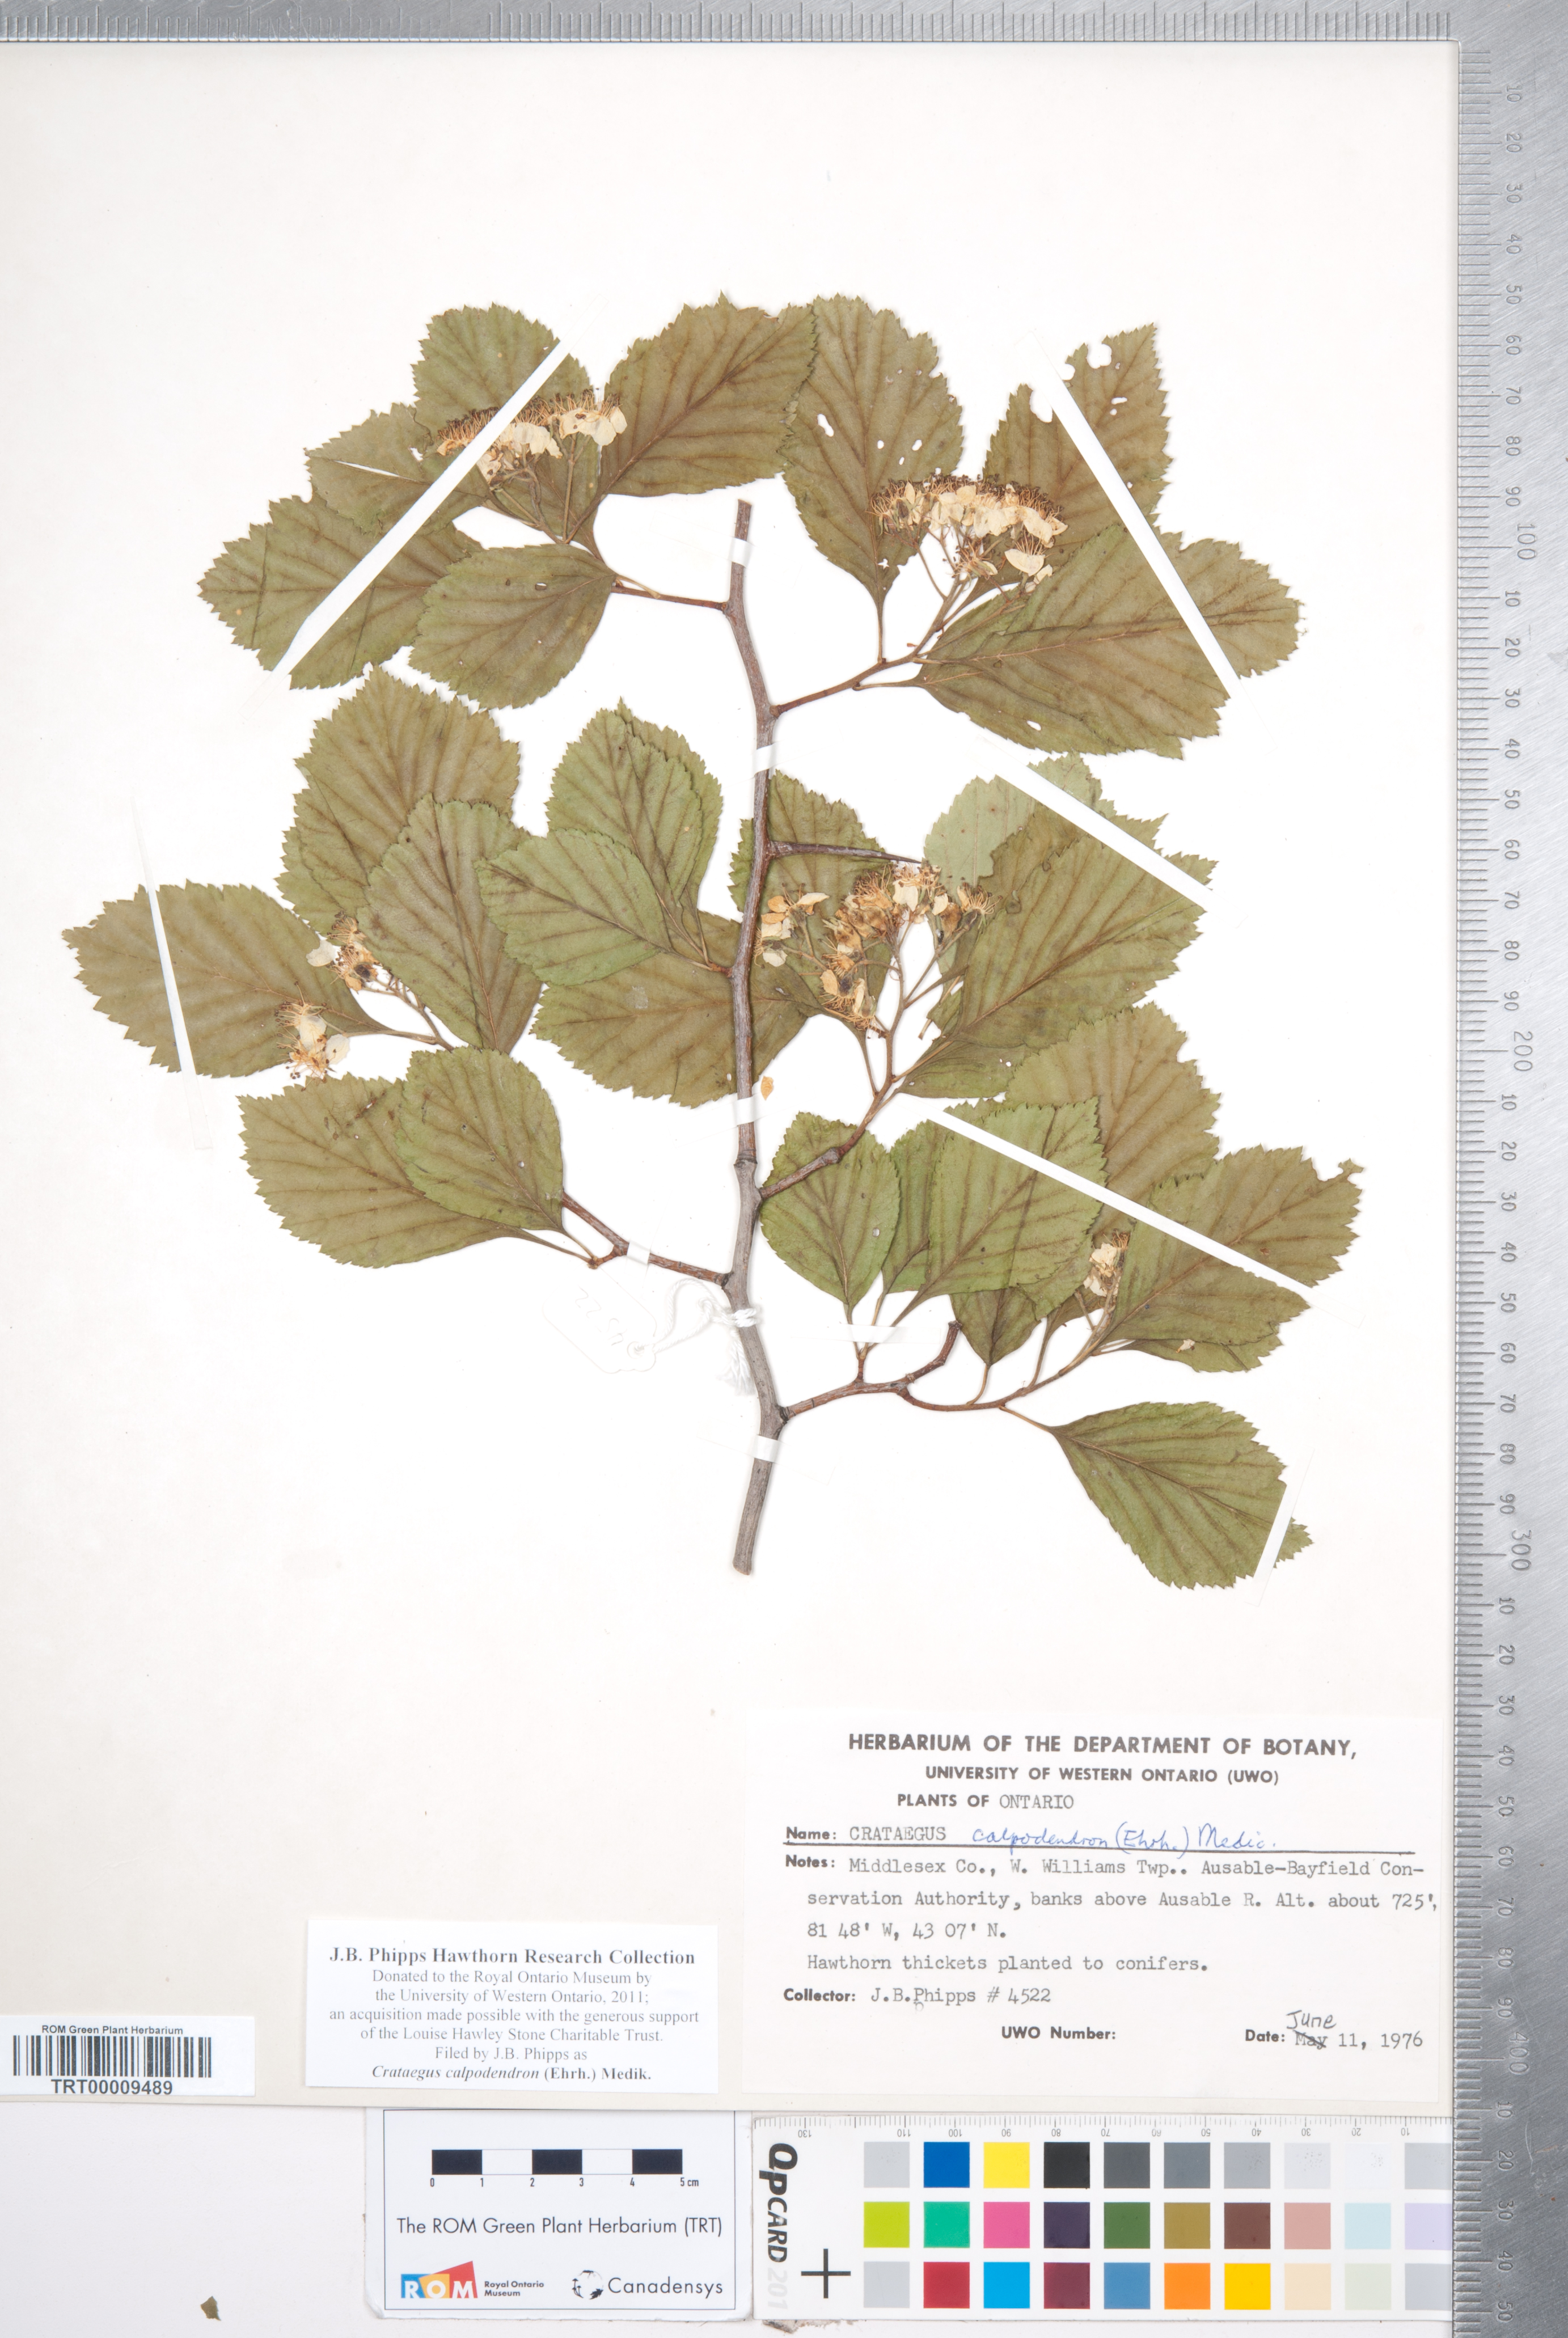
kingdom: Plantae
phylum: Tracheophyta
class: Magnoliopsida
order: Rosales
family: Rosaceae
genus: Crataegus
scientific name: Crataegus calpodendron
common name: Pear hawthorn
